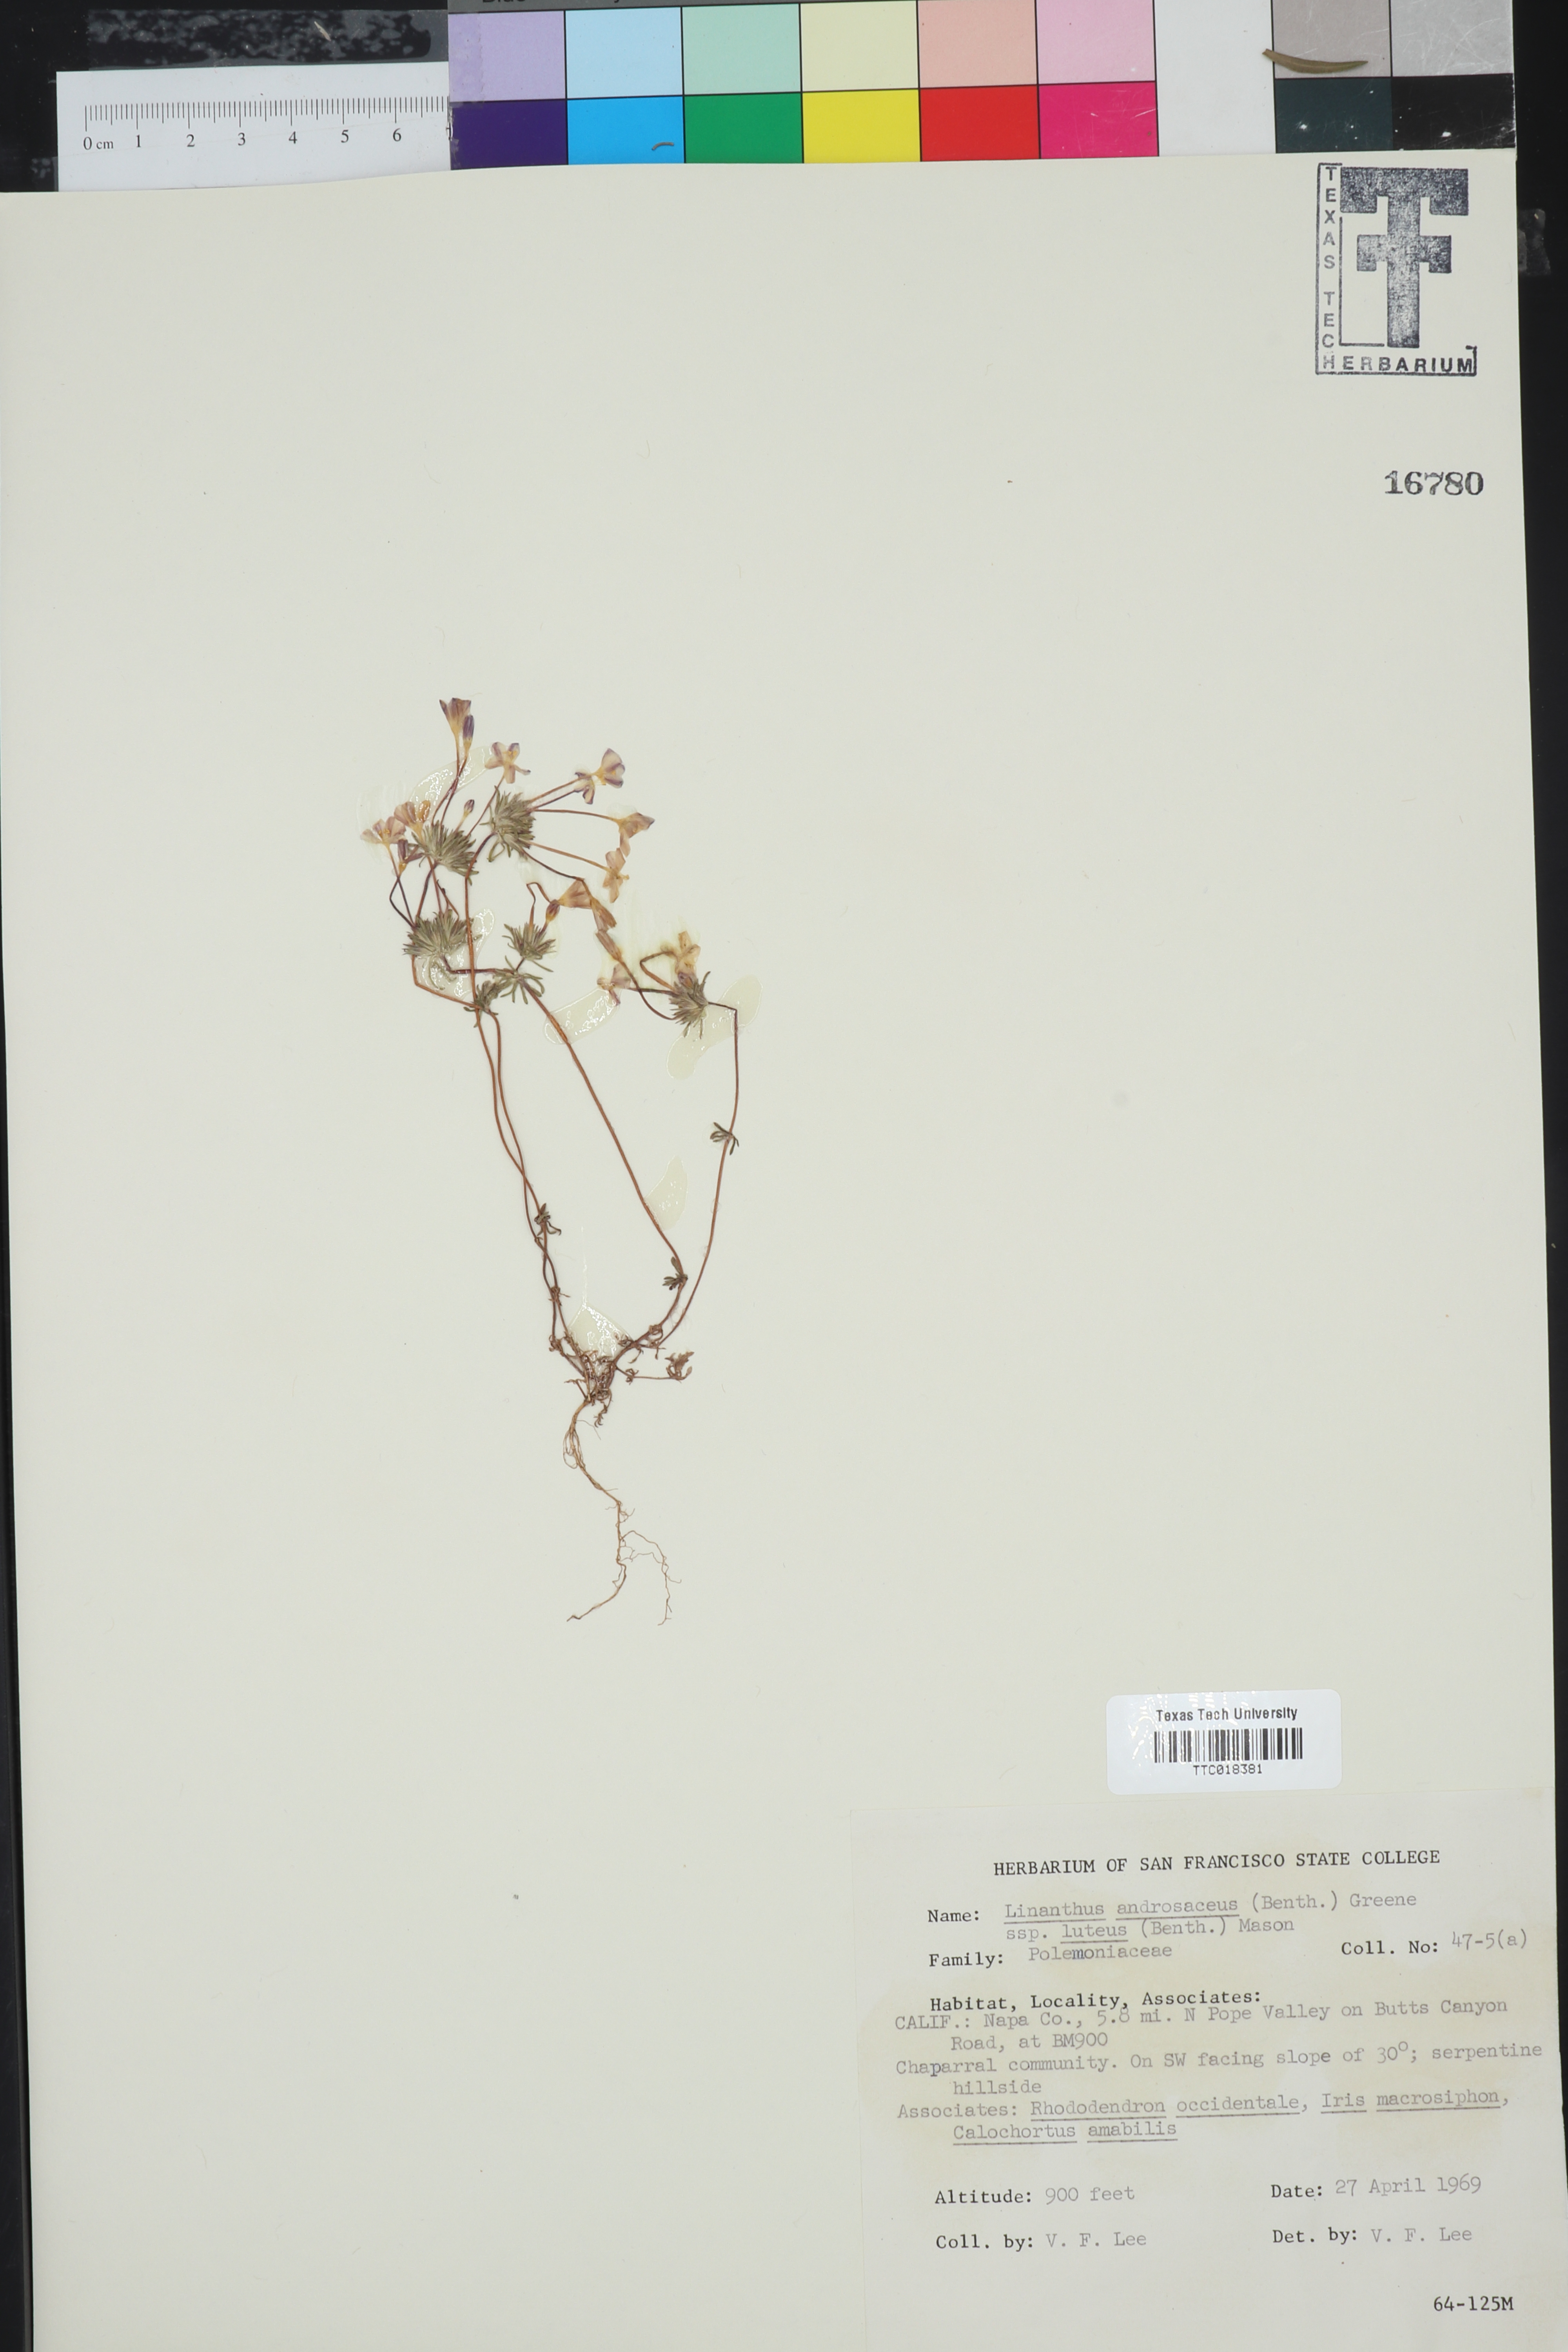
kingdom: Plantae
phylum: Tracheophyta
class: Magnoliopsida
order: Ericales
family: Polemoniaceae
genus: Leptosiphon
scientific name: Leptosiphon parviflorus
